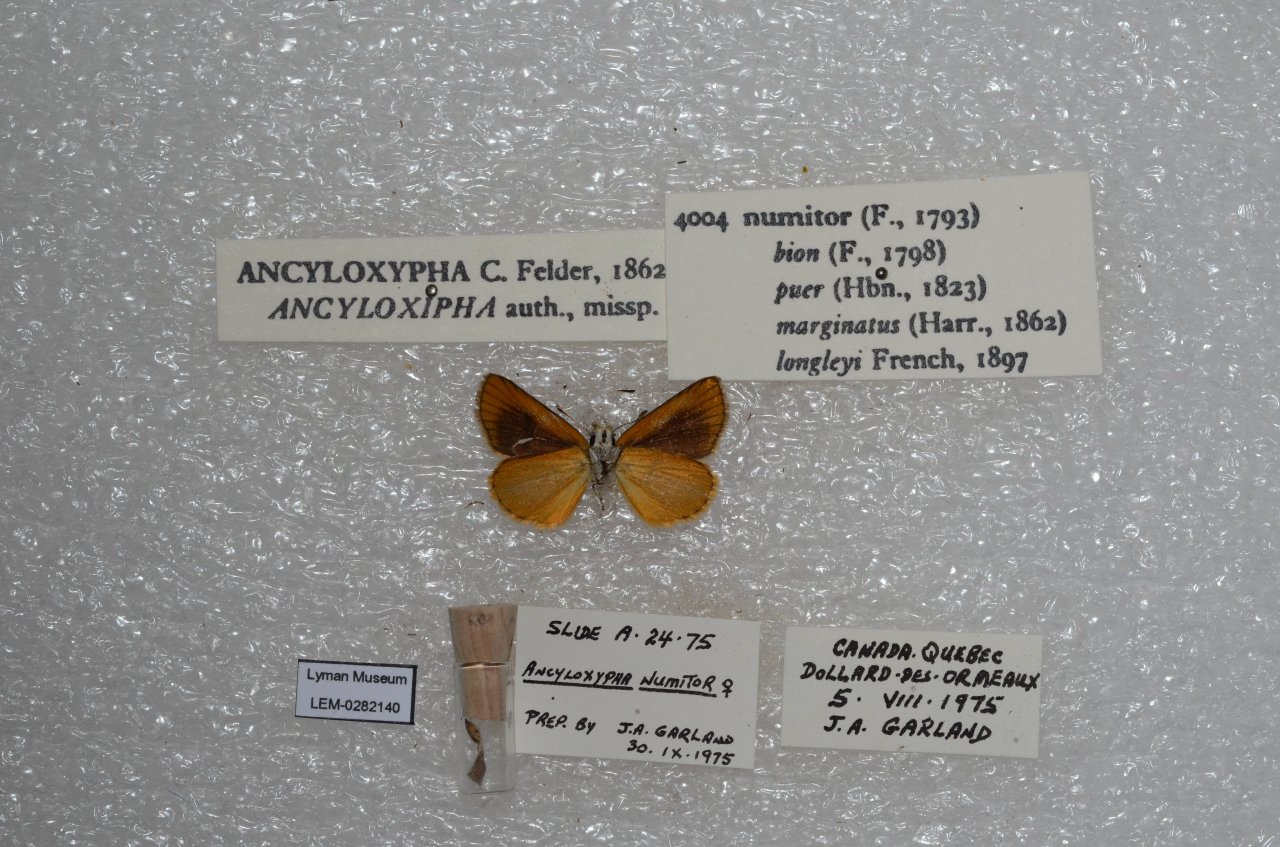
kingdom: Animalia
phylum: Arthropoda
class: Insecta
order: Lepidoptera
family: Hesperiidae
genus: Ancyloxypha
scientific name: Ancyloxypha numitor
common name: Least Skipper
